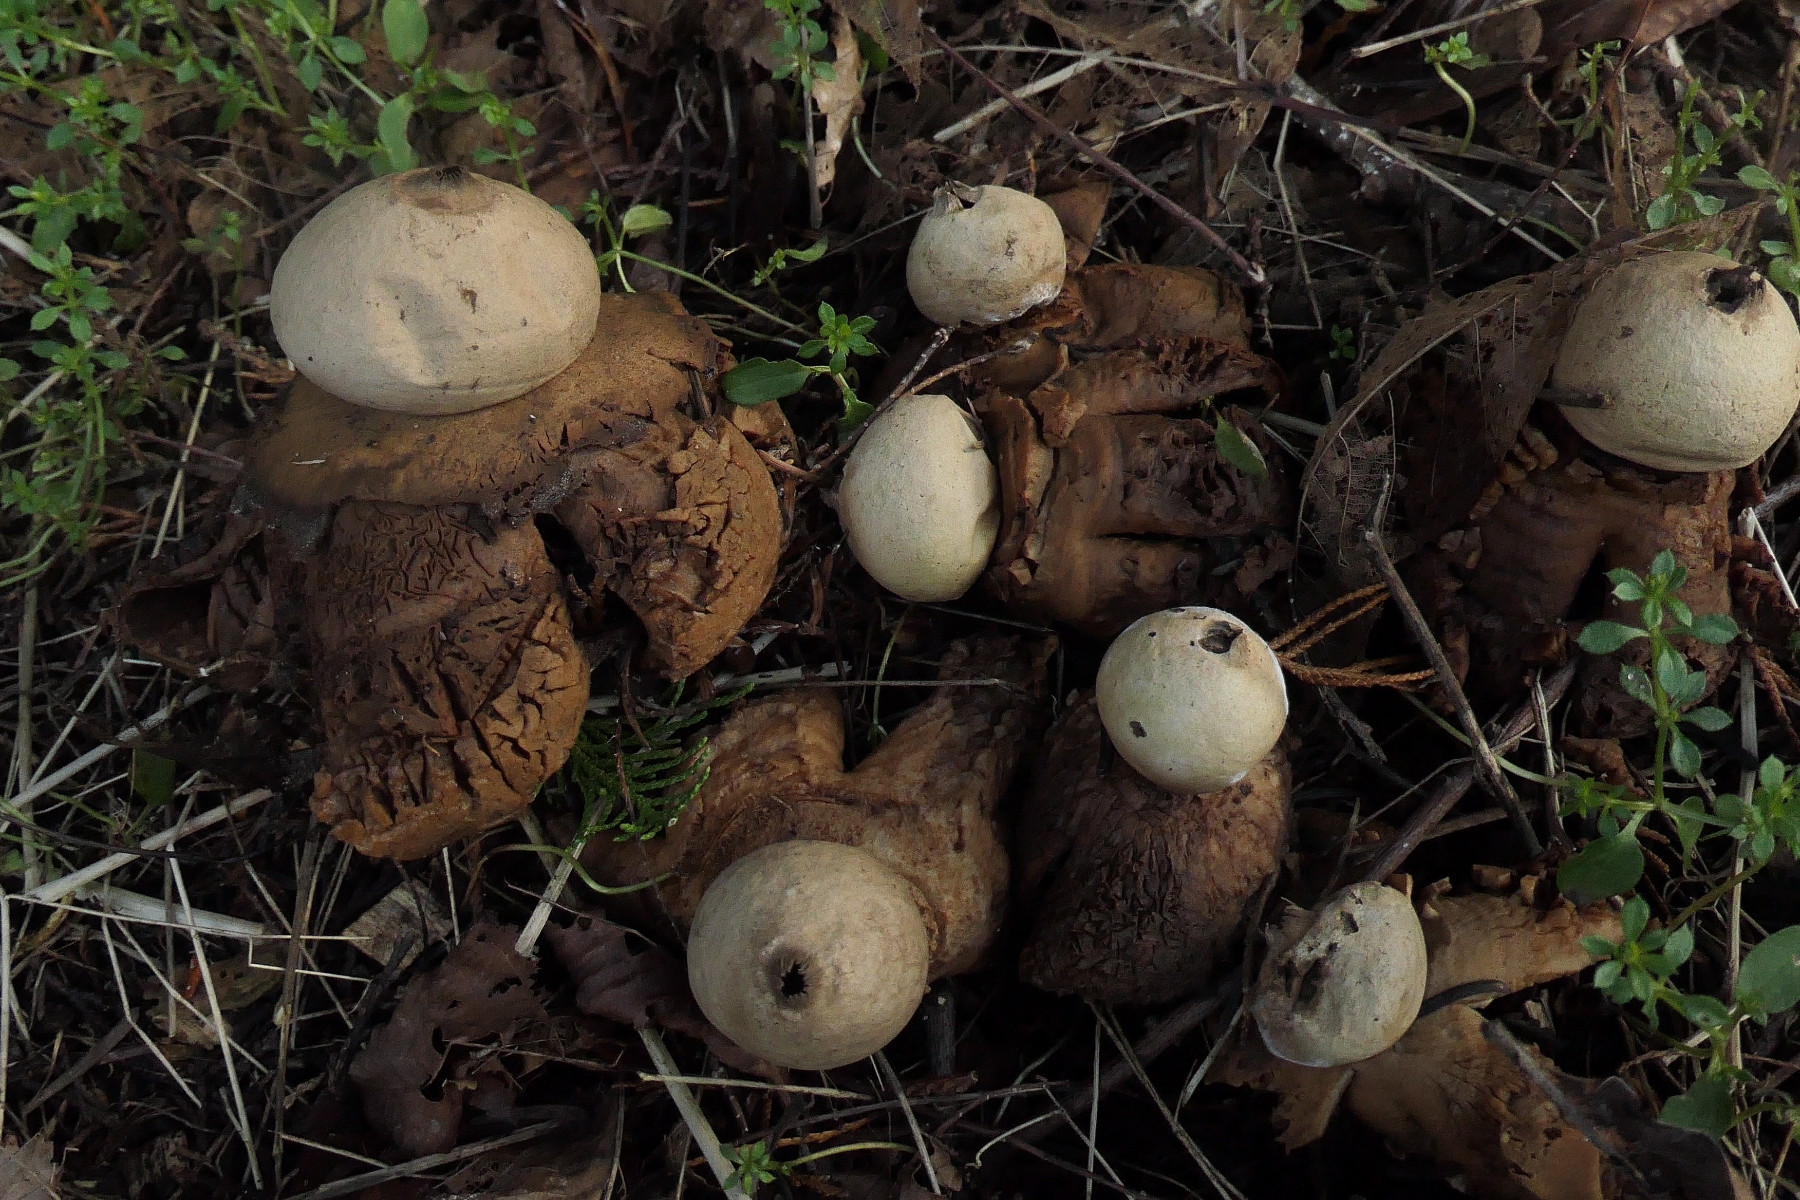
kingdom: Fungi
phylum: Basidiomycota
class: Agaricomycetes
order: Geastrales
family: Geastraceae
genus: Geastrum
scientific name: Geastrum michelianum
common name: kødet stjernebold
